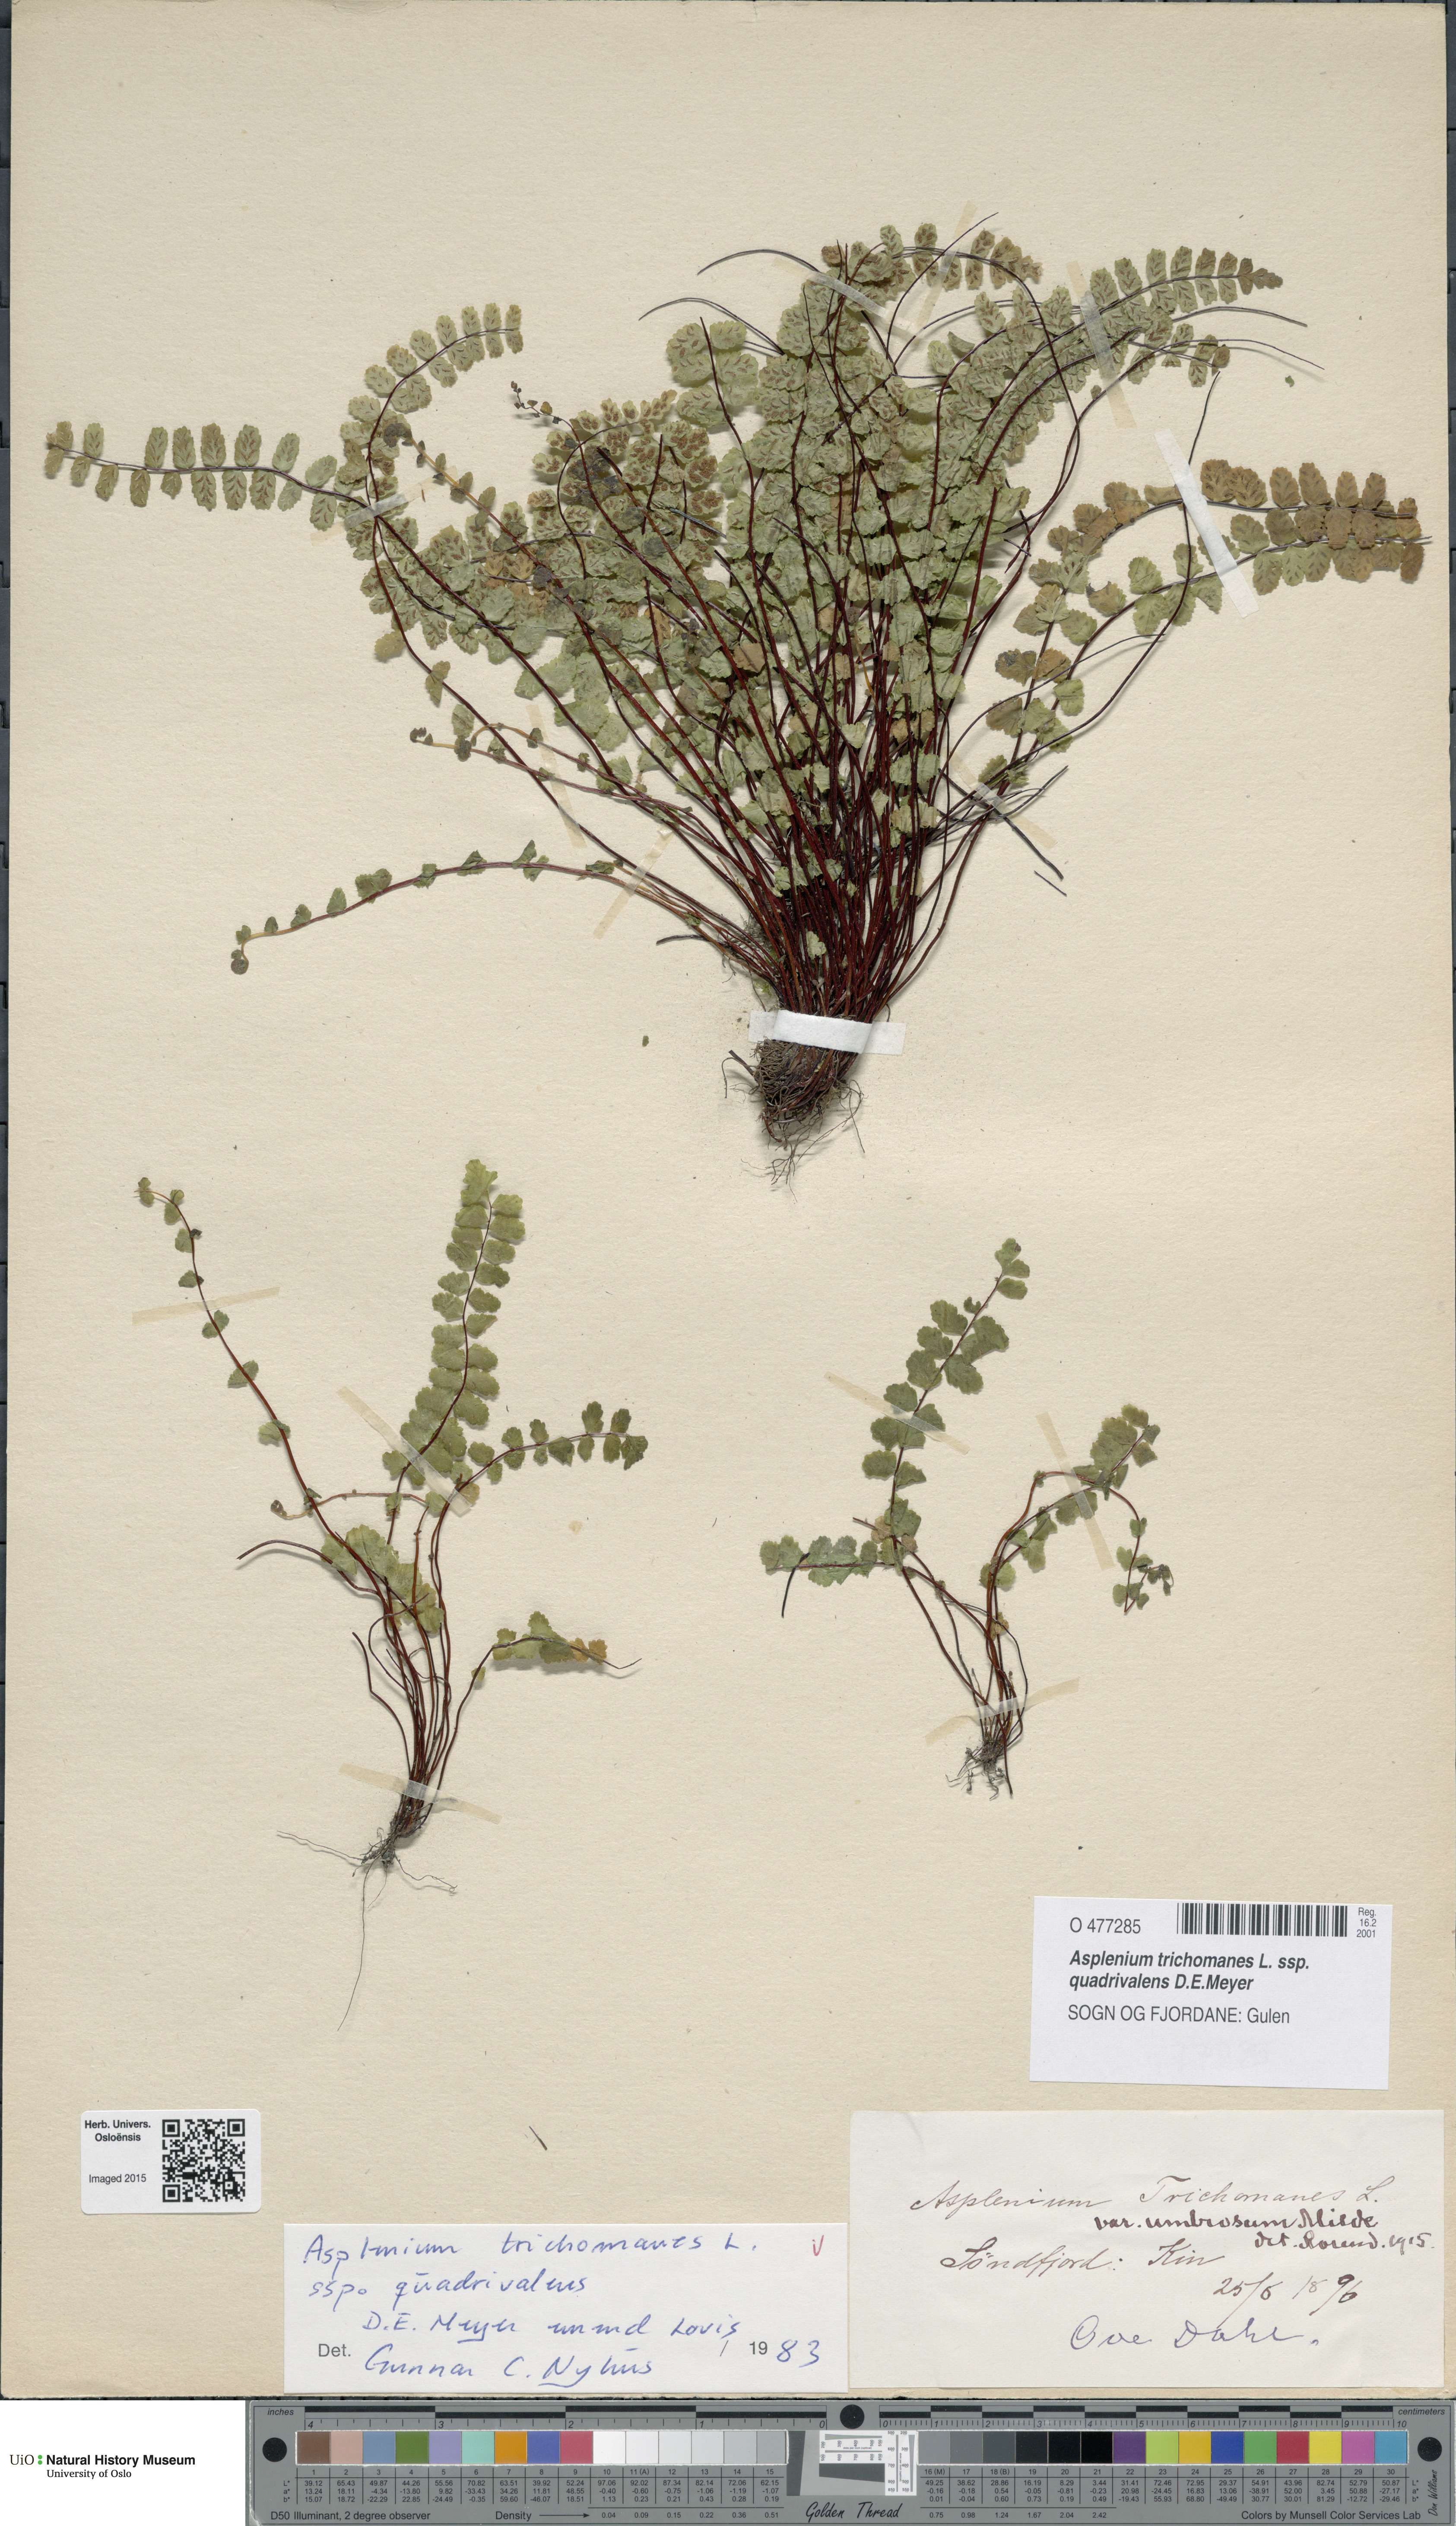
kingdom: Plantae
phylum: Tracheophyta
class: Polypodiopsida
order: Polypodiales
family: Aspleniaceae
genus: Asplenium
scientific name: Asplenium quadrivalens
